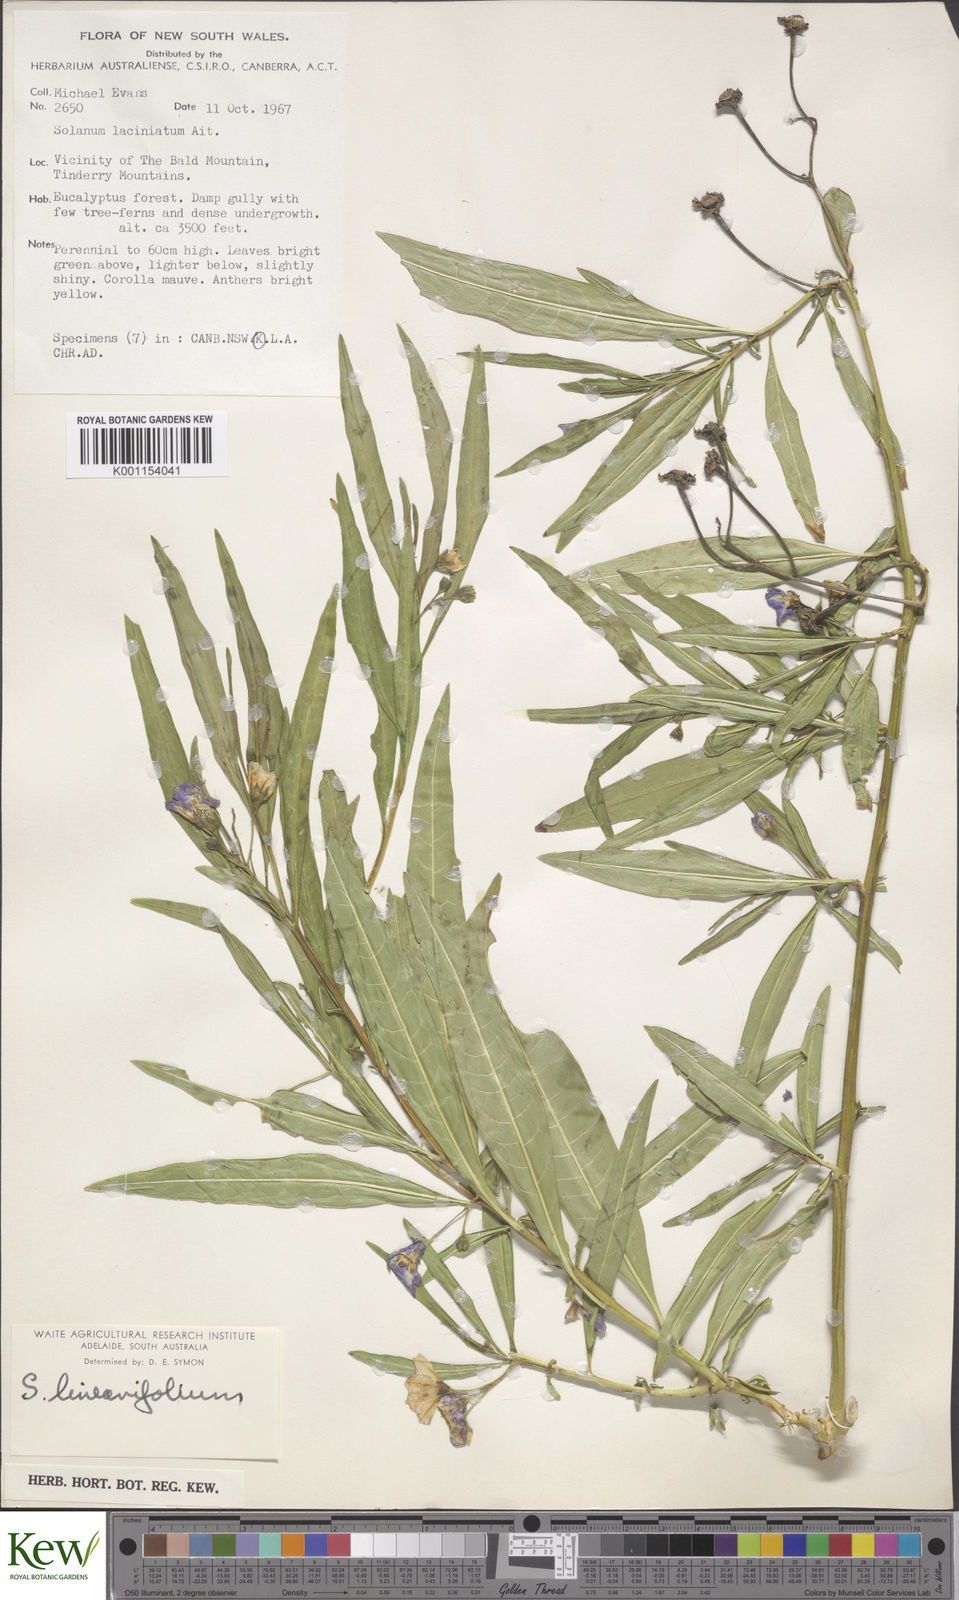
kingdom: Plantae
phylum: Tracheophyta
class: Magnoliopsida
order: Solanales
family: Solanaceae
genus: Solanum
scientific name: Solanum linearifolium
